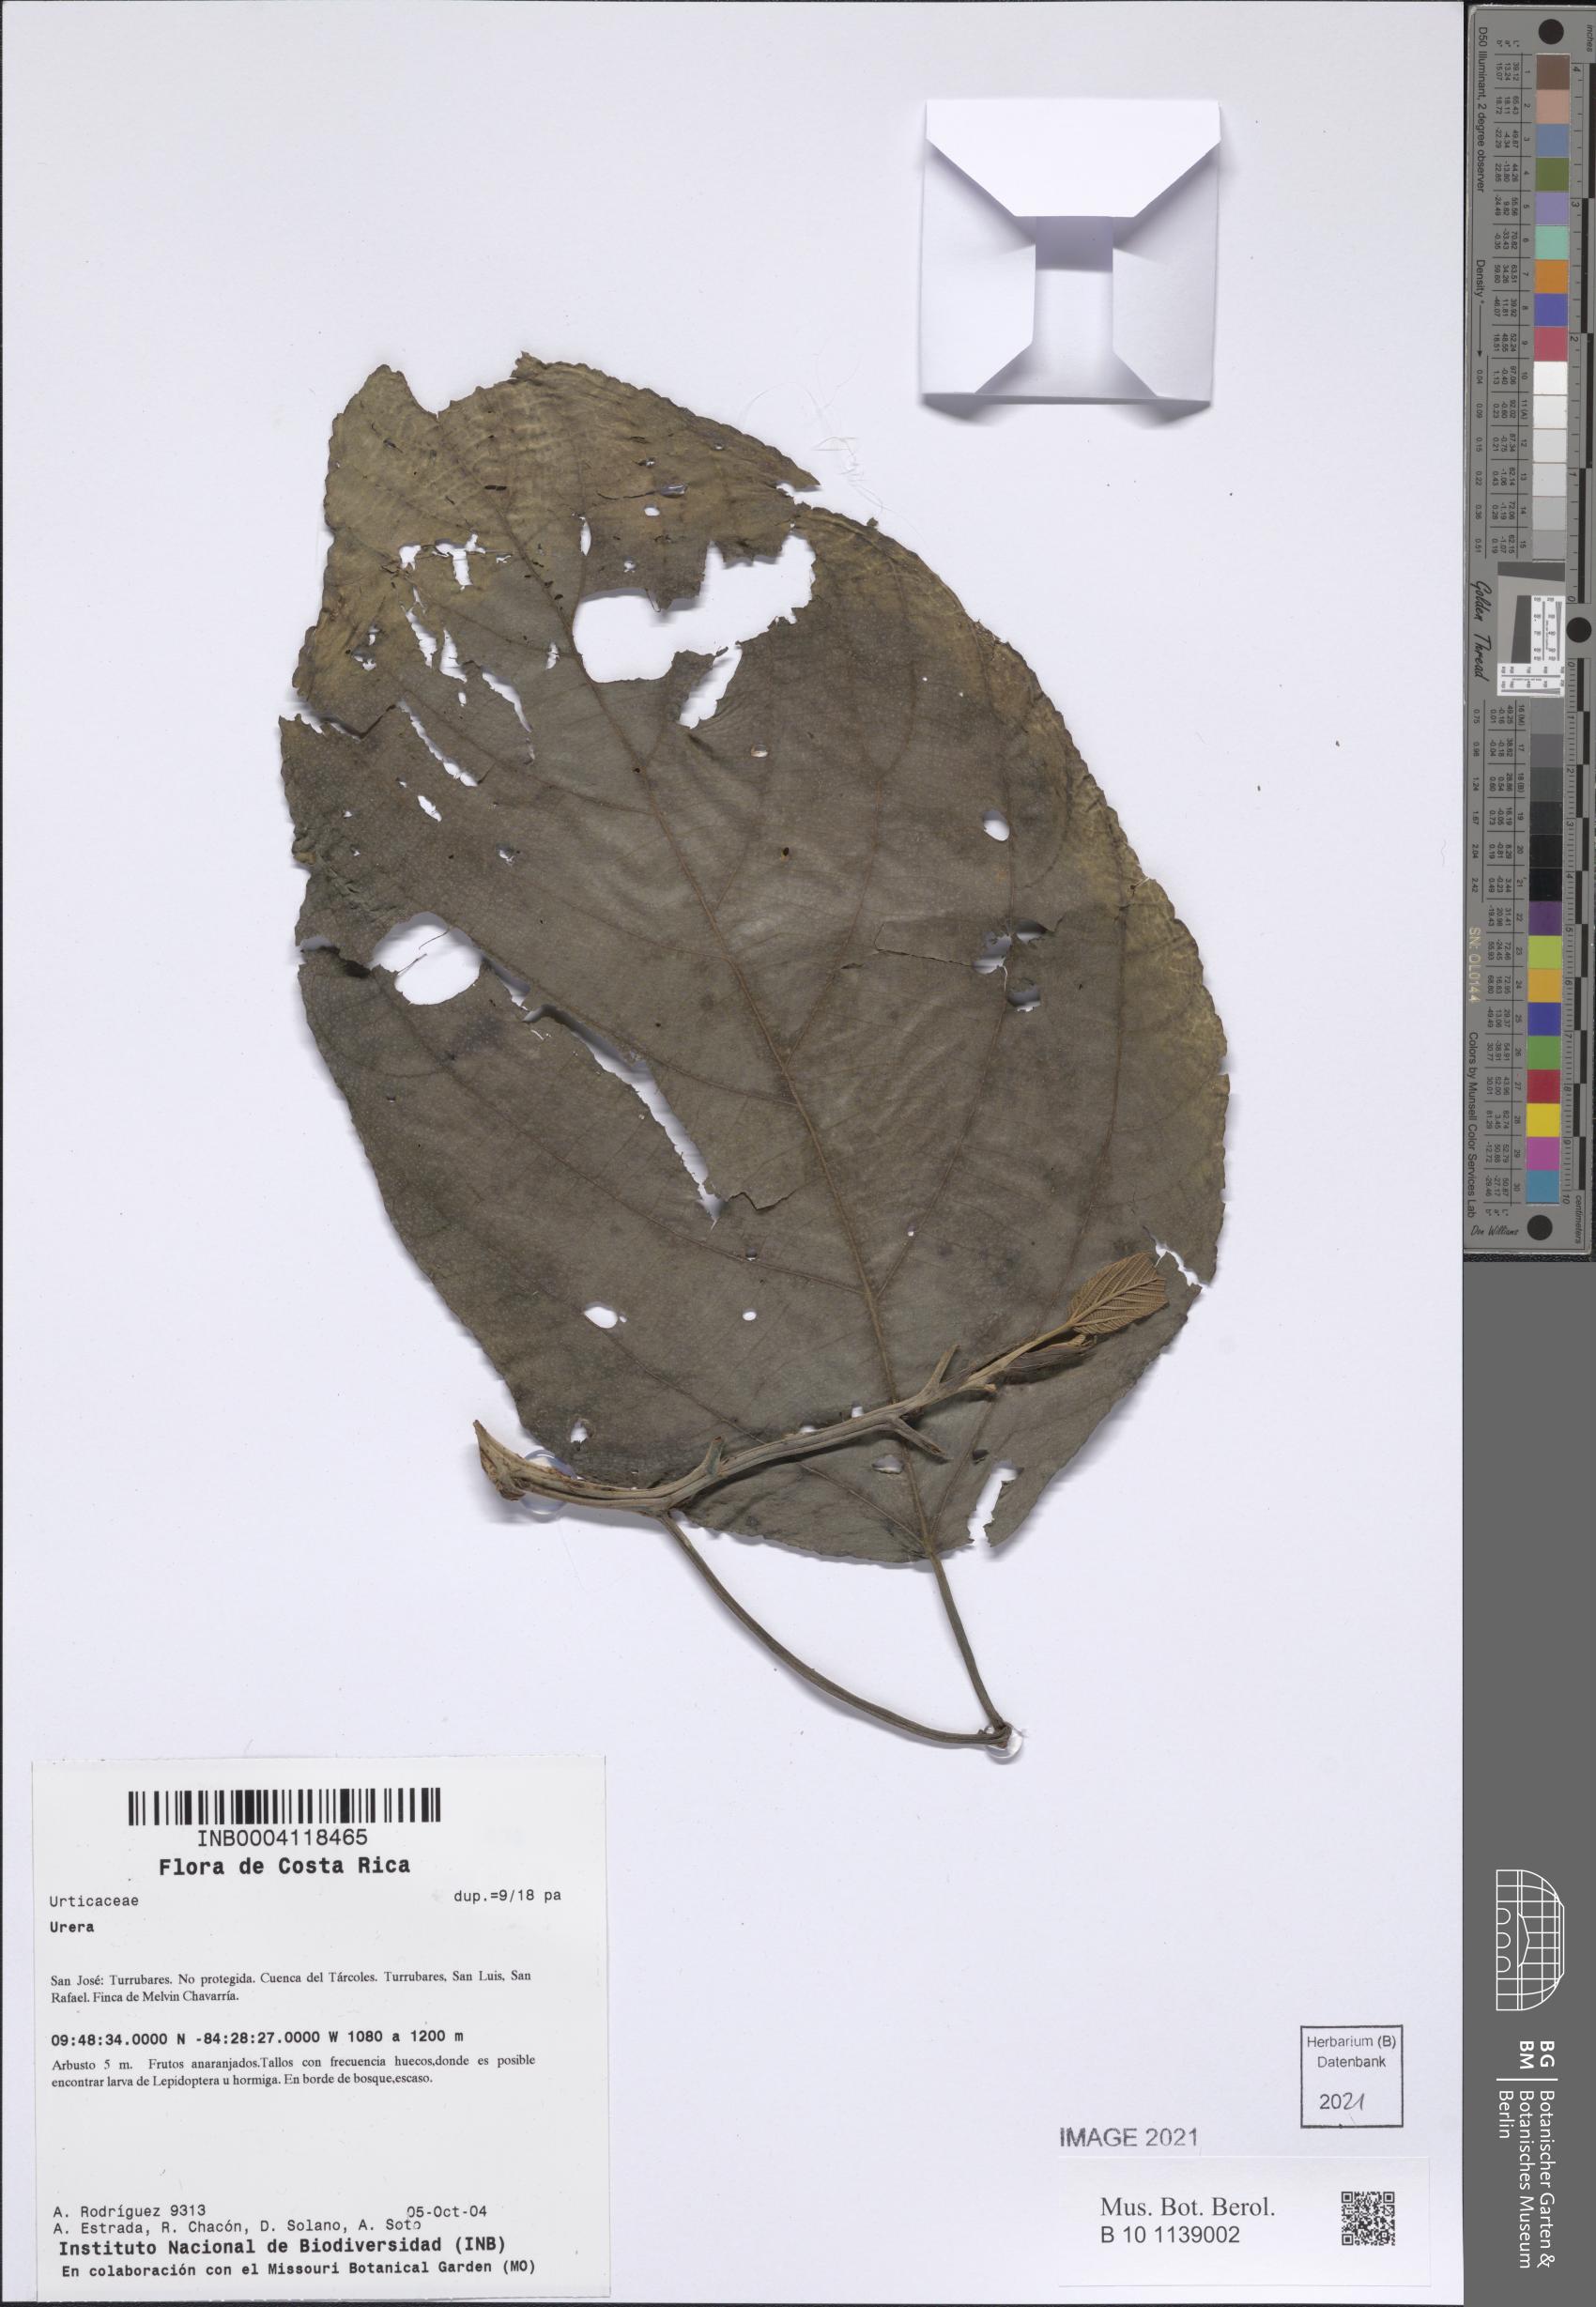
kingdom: Plantae
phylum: Tracheophyta
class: Magnoliopsida
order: Rosales
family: Urticaceae
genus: Urera
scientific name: Urera
